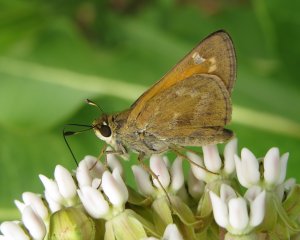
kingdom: Animalia
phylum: Arthropoda
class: Insecta
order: Lepidoptera
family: Hesperiidae
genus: Atalopedes
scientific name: Atalopedes campestris
